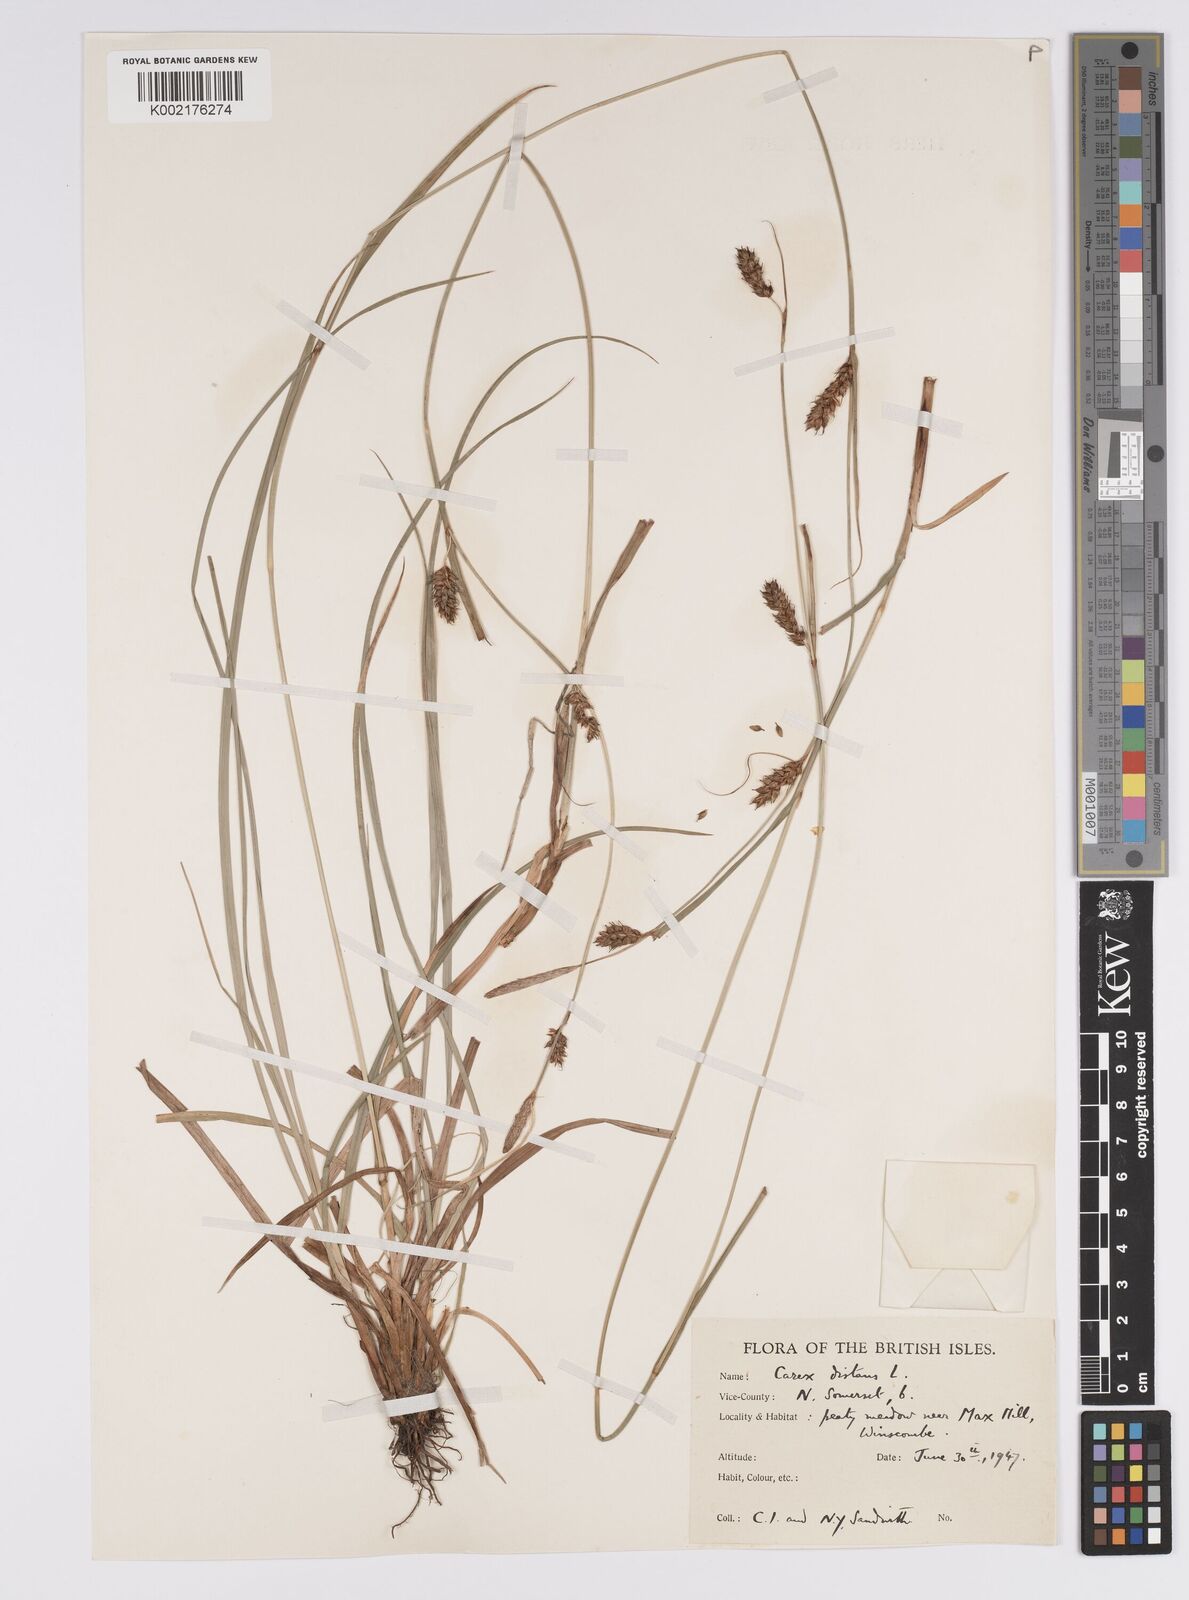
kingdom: Plantae
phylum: Tracheophyta
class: Liliopsida
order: Poales
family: Cyperaceae
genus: Carex
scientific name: Carex distans
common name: Distant sedge
